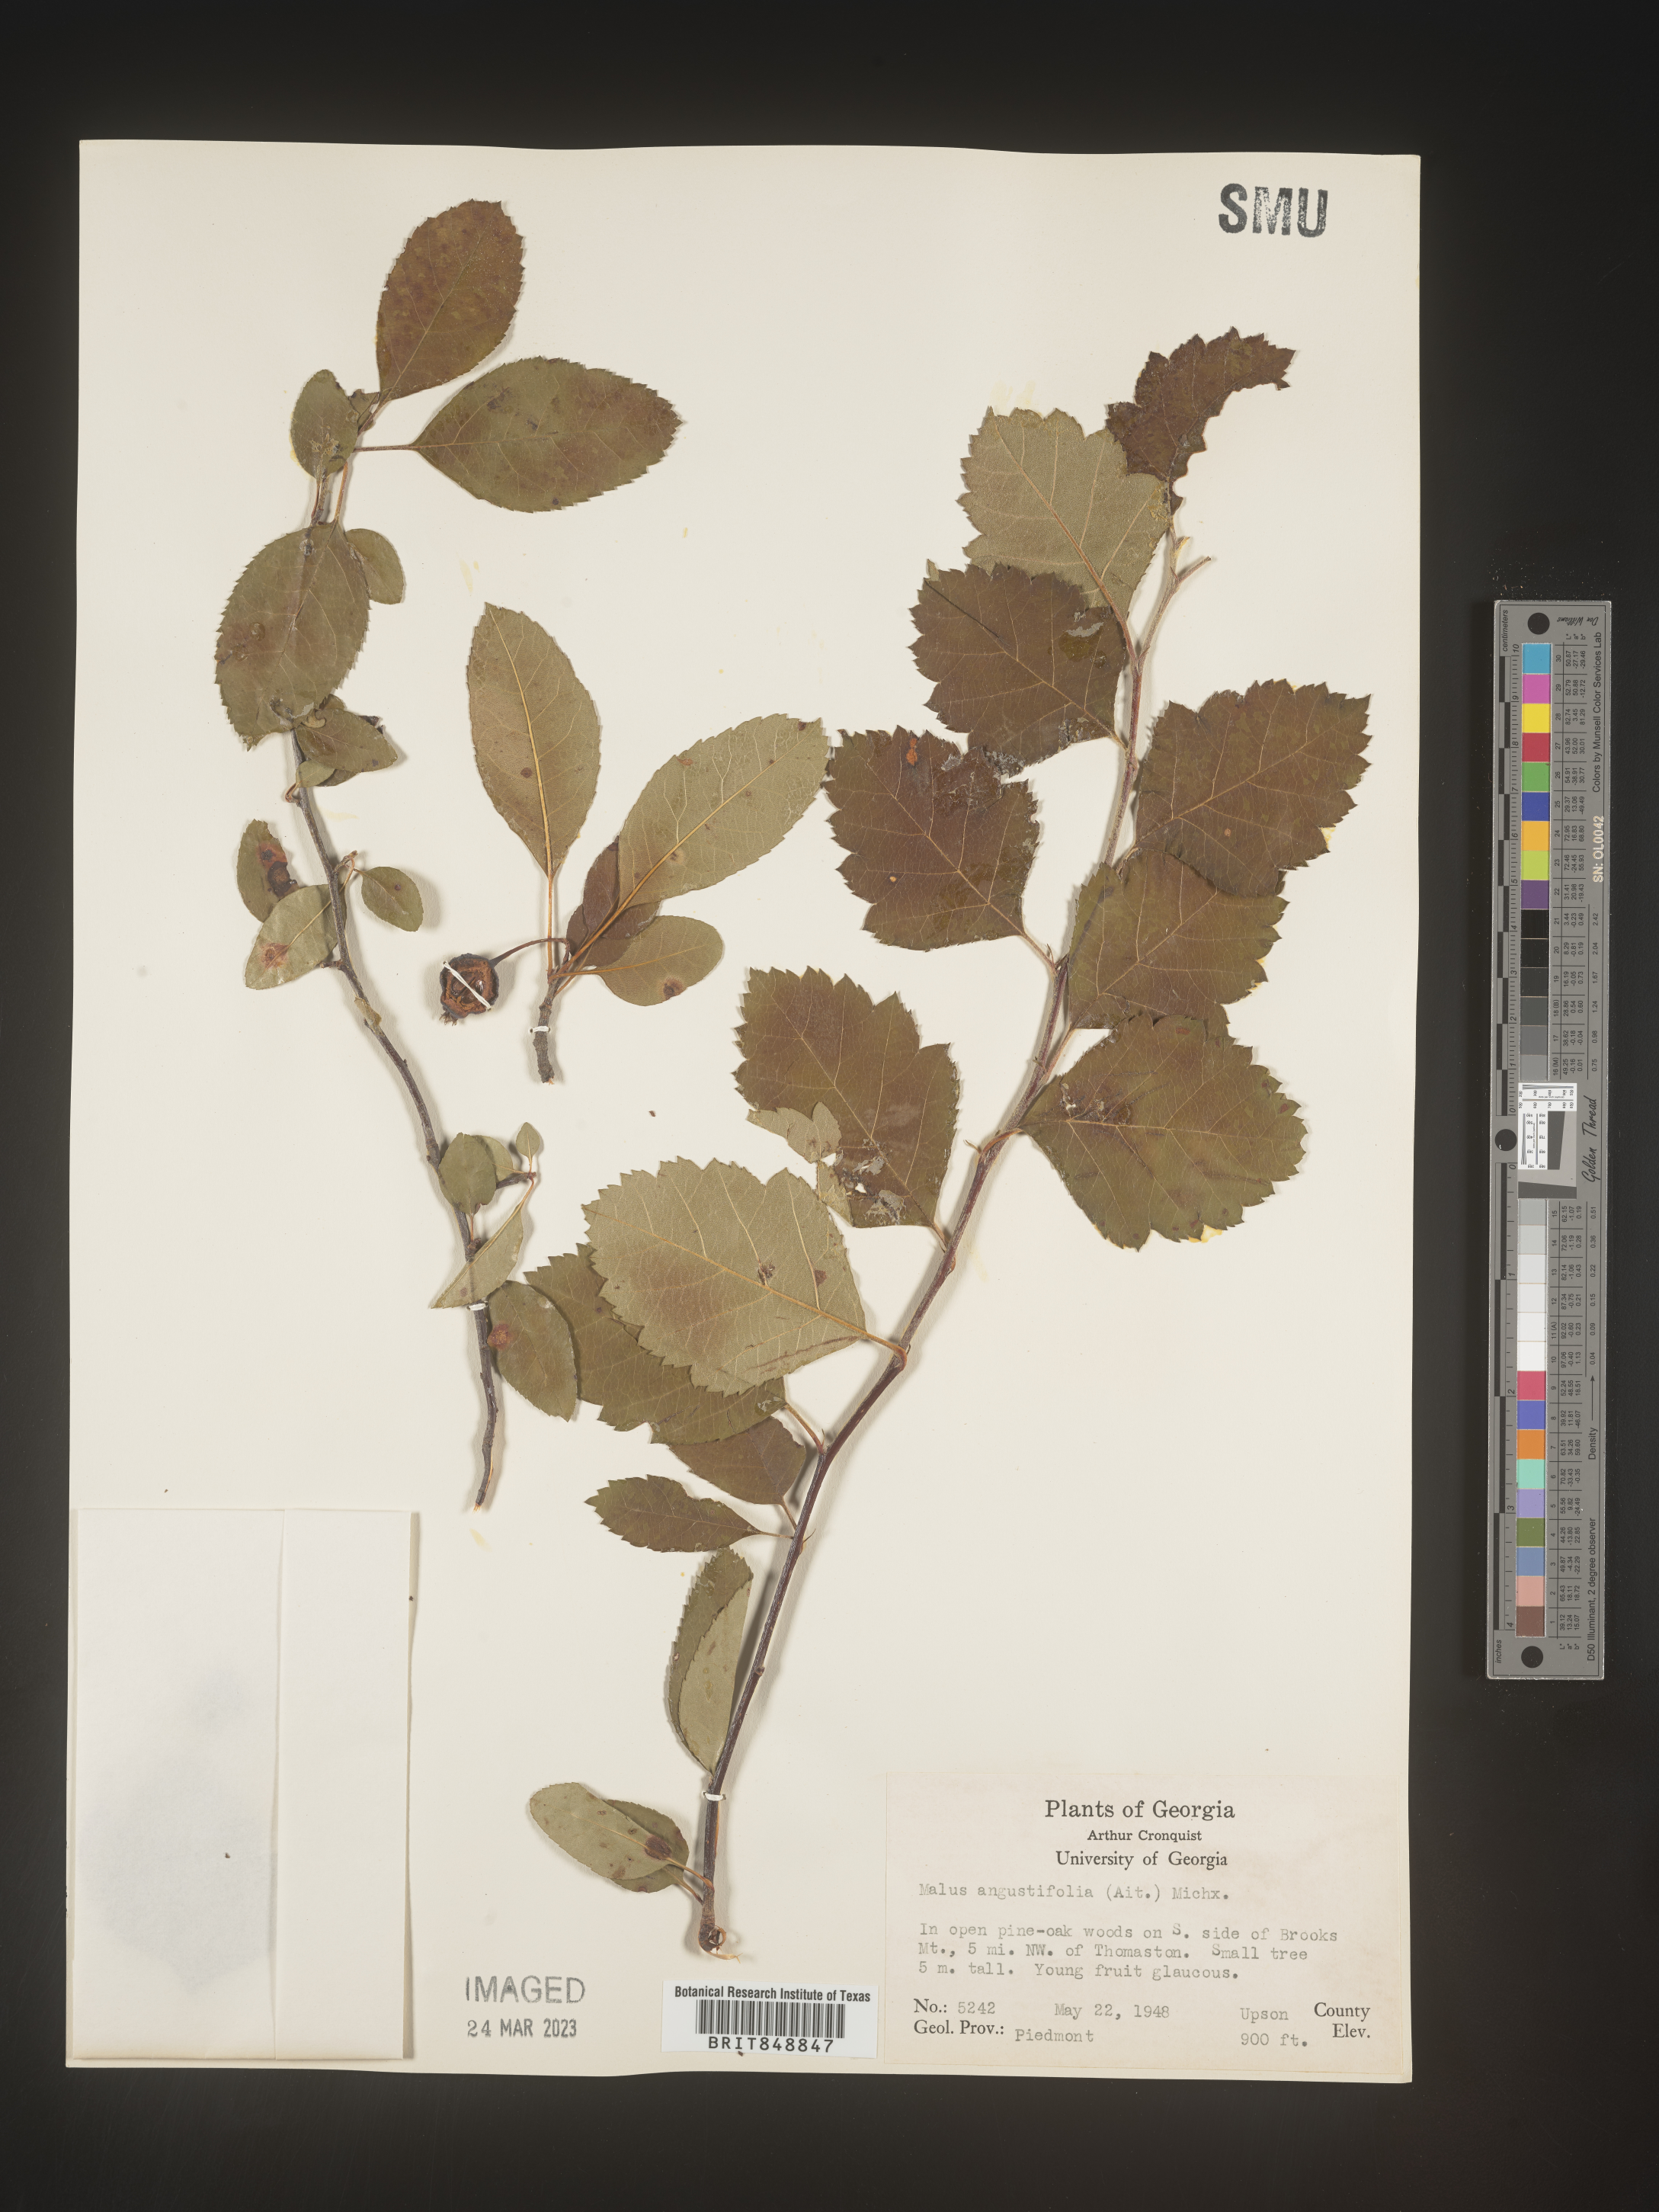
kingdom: Plantae
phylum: Tracheophyta
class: Magnoliopsida
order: Rosales
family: Rosaceae
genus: Malus
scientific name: Malus angustifolia
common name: Southern crab apple
